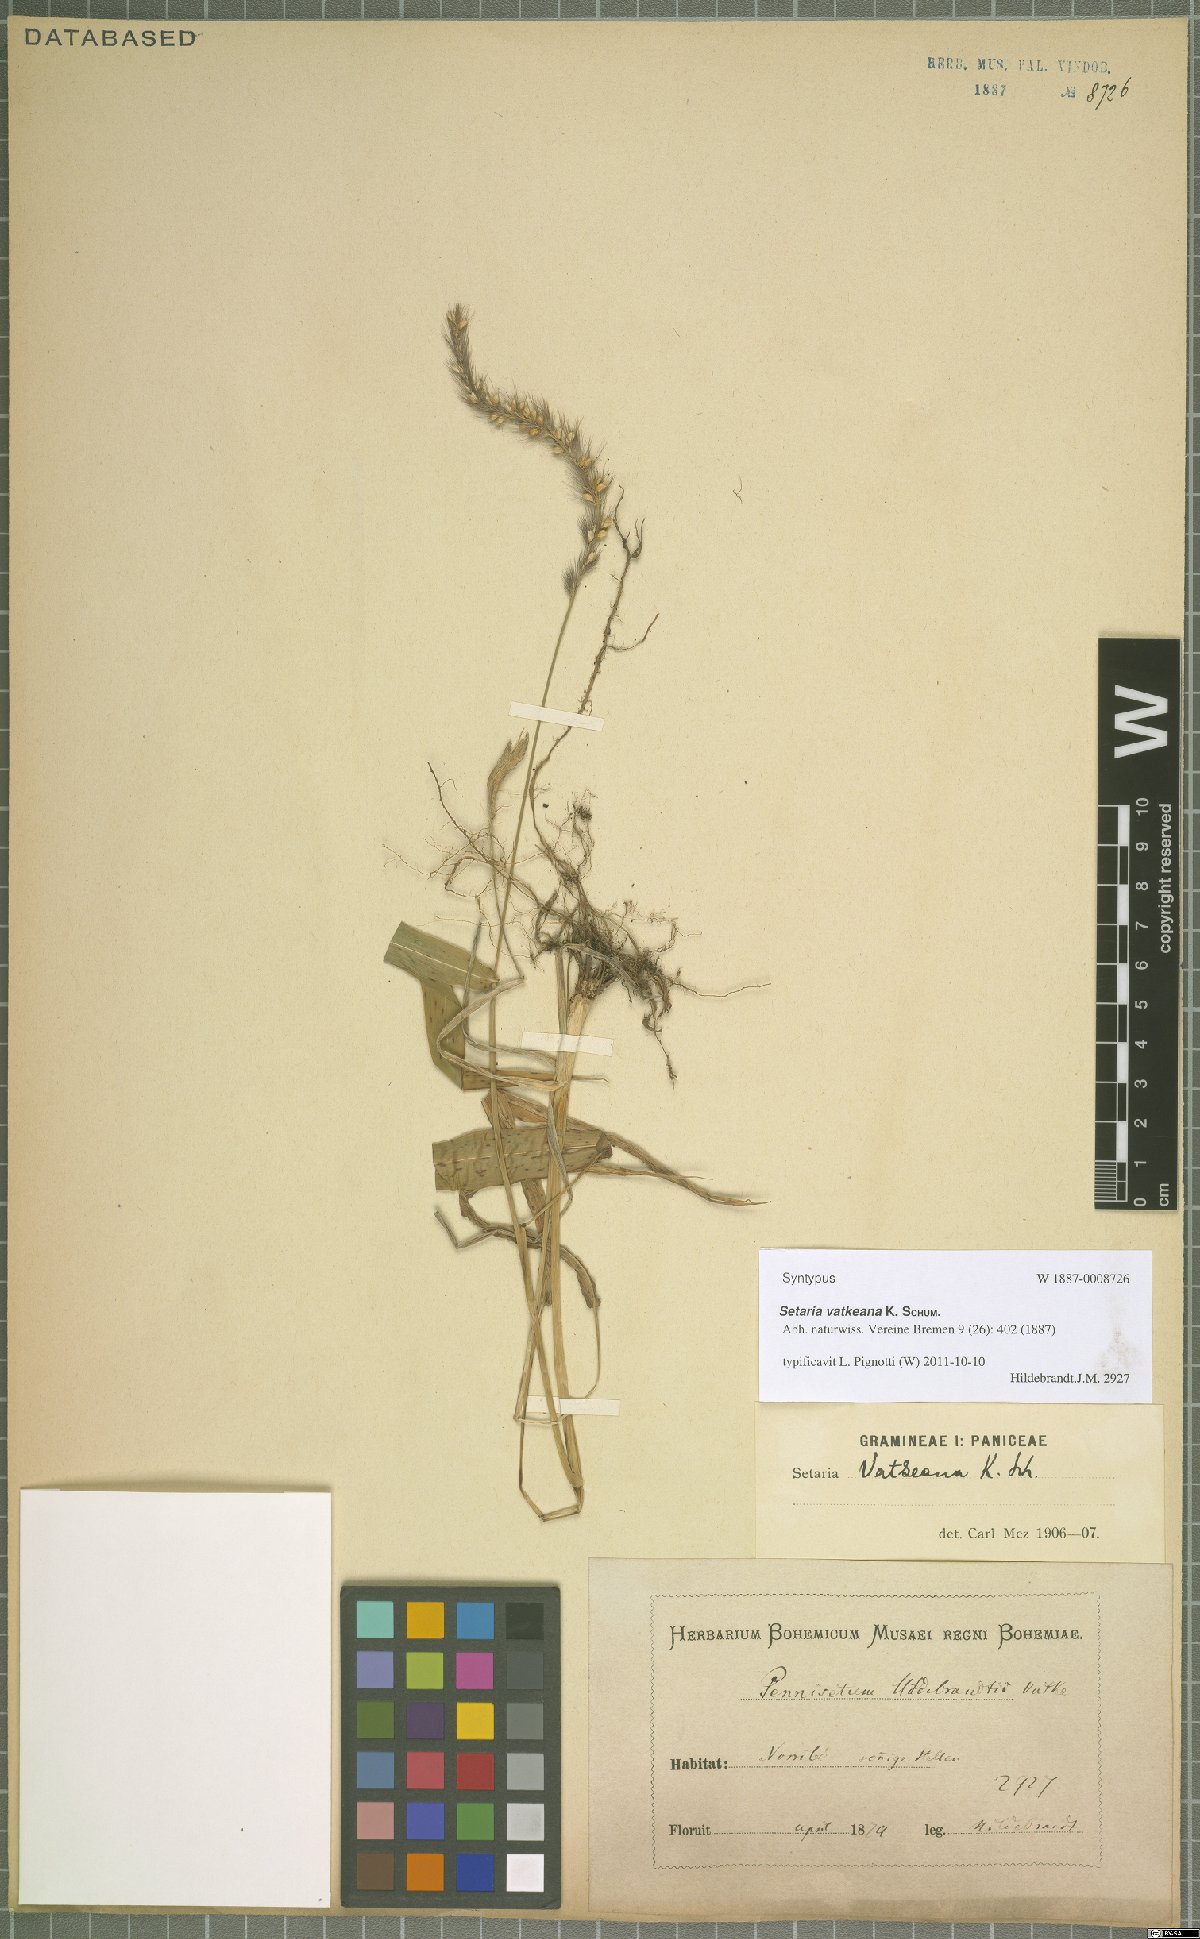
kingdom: Plantae
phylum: Tracheophyta
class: Liliopsida
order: Poales
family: Poaceae
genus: Setaria
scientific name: Setaria vatkeana
